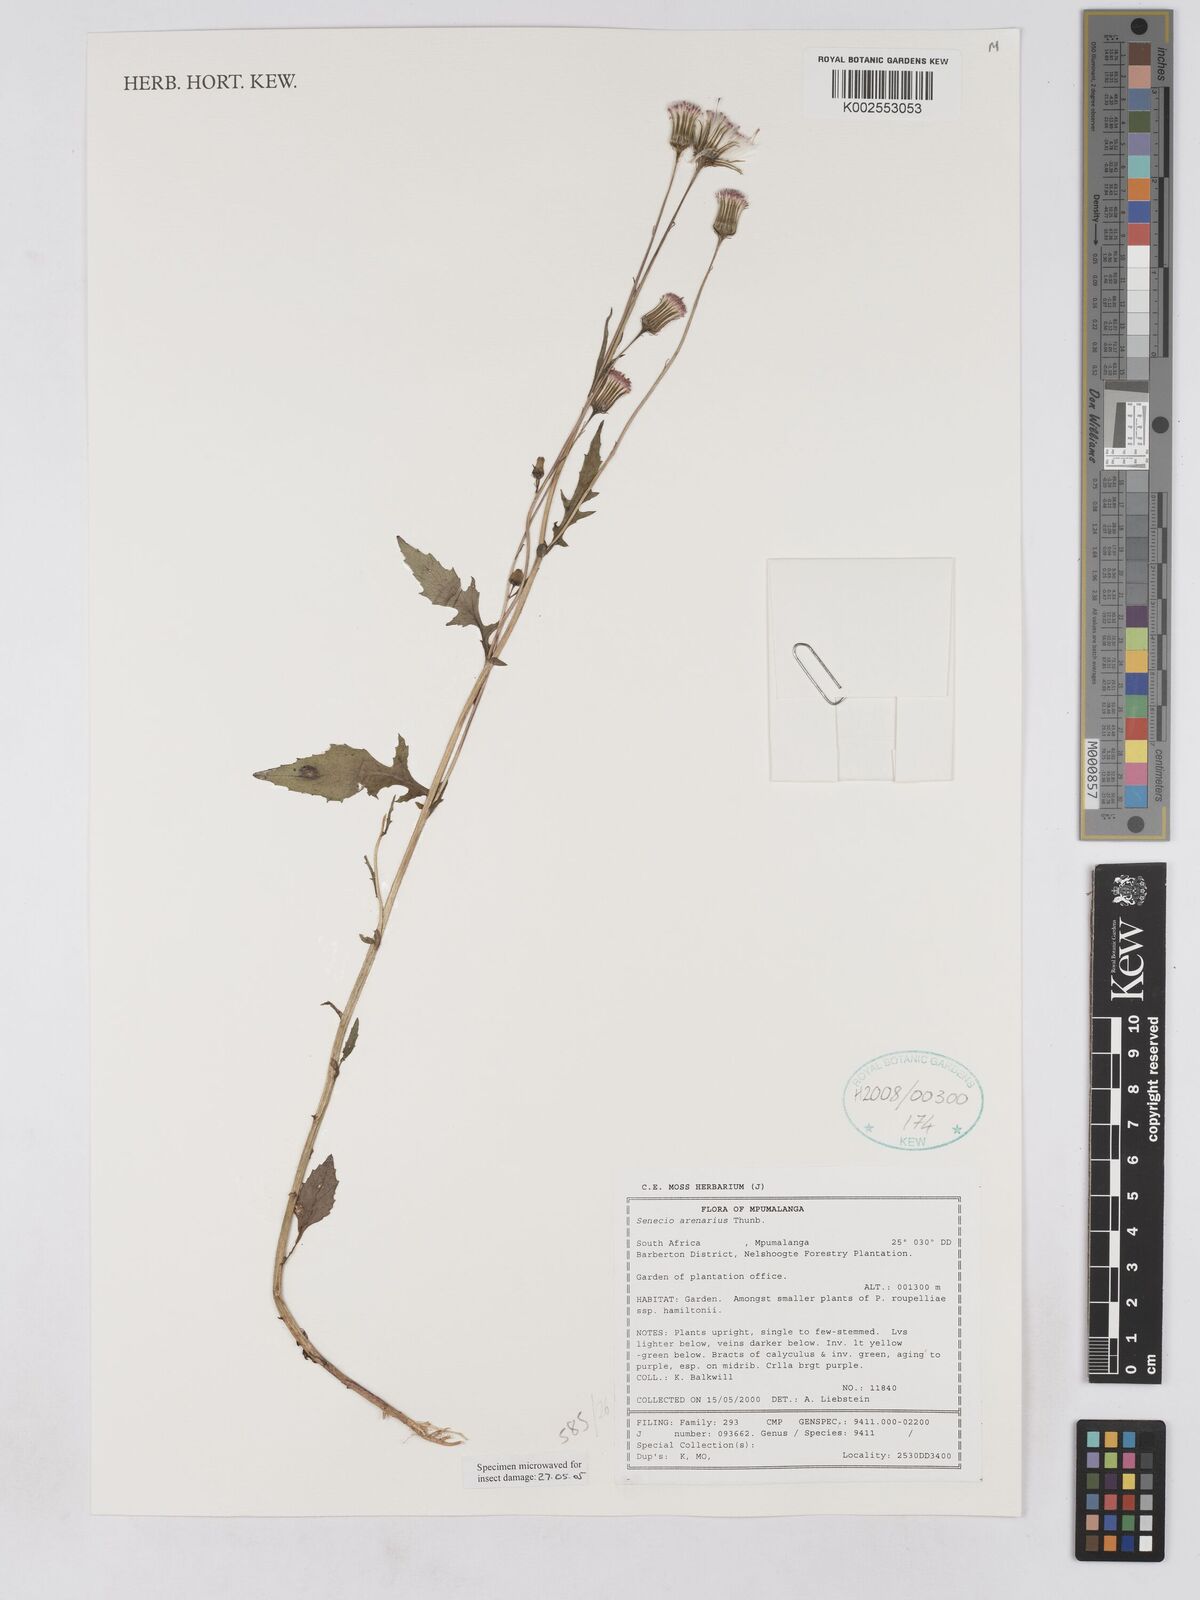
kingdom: Plantae
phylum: Tracheophyta
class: Magnoliopsida
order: Asterales
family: Asteraceae
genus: Senecio
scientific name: Senecio arenarius
